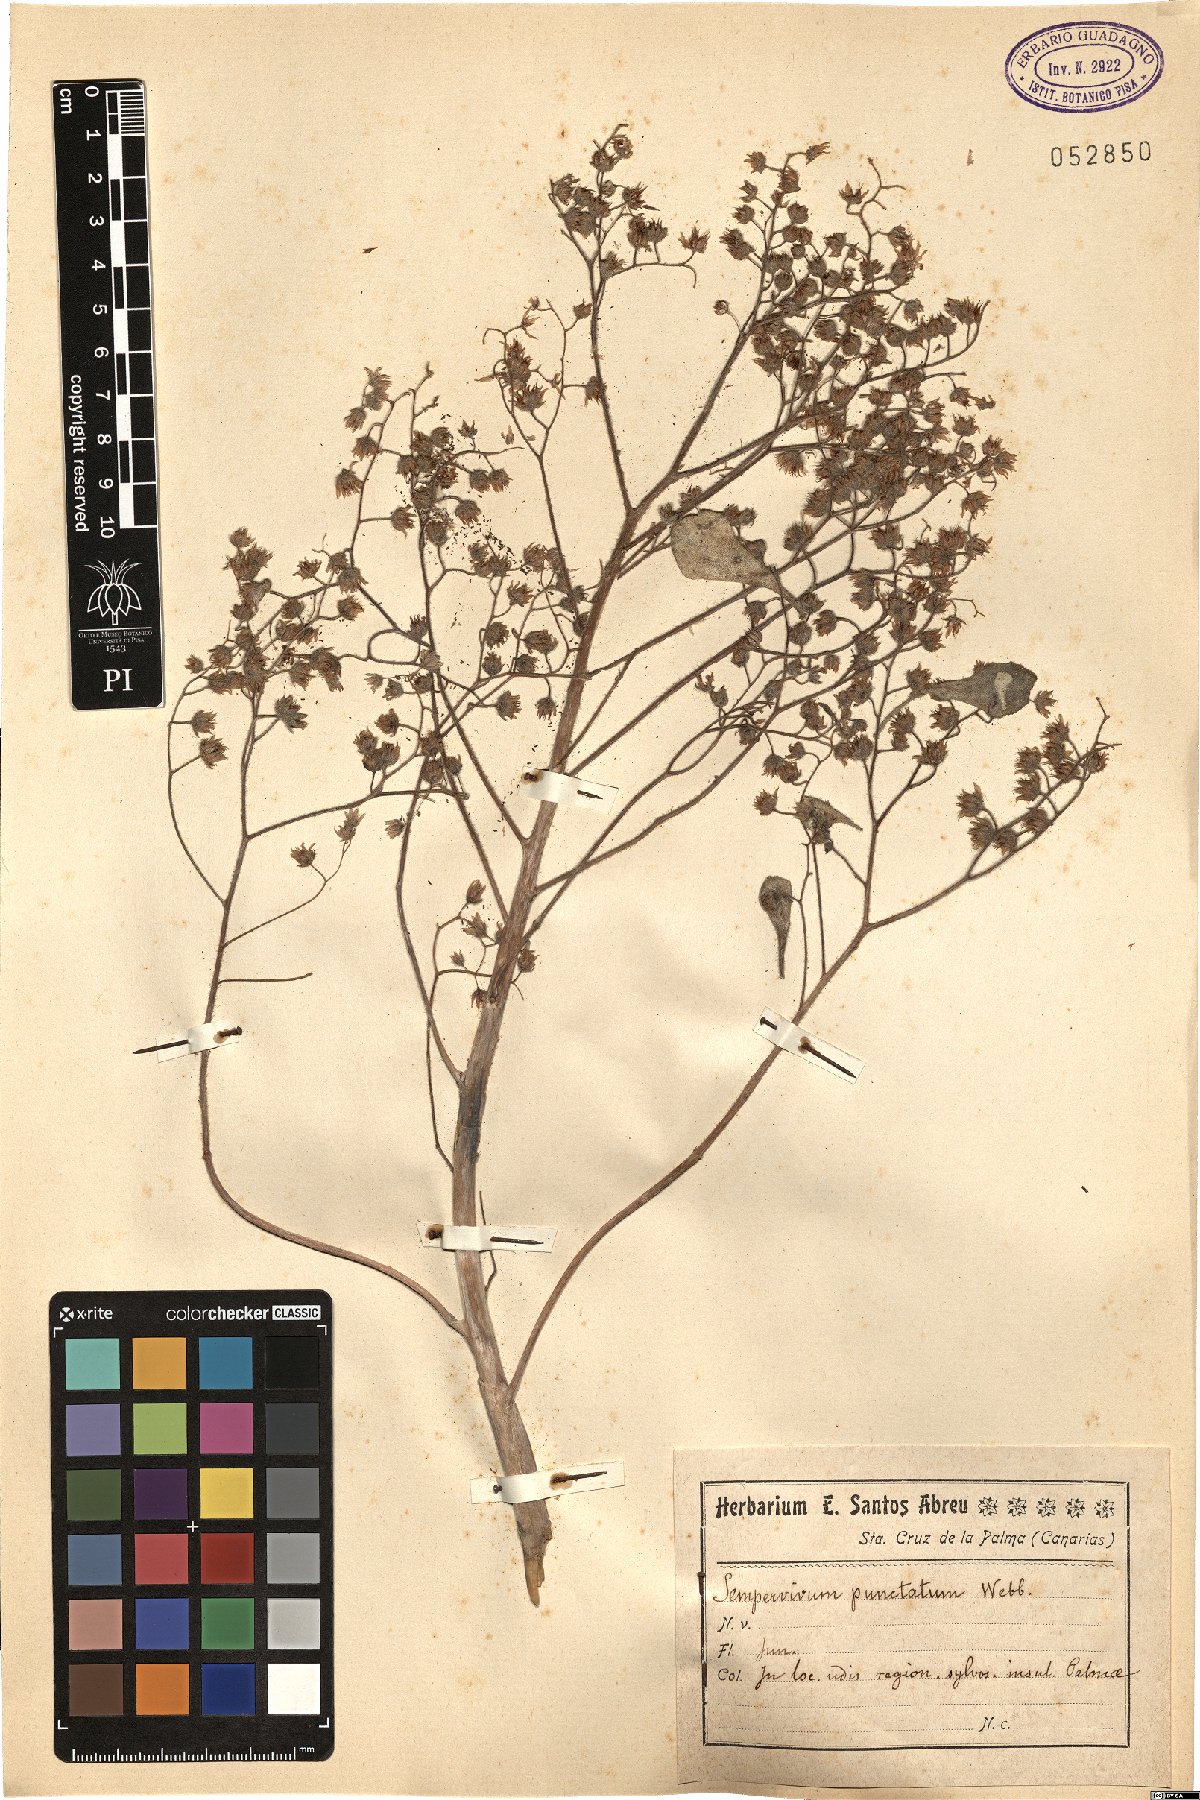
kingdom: Plantae
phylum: Tracheophyta
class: Magnoliopsida
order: Saxifragales
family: Crassulaceae
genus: Aichryson
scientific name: Aichryson punctatum
